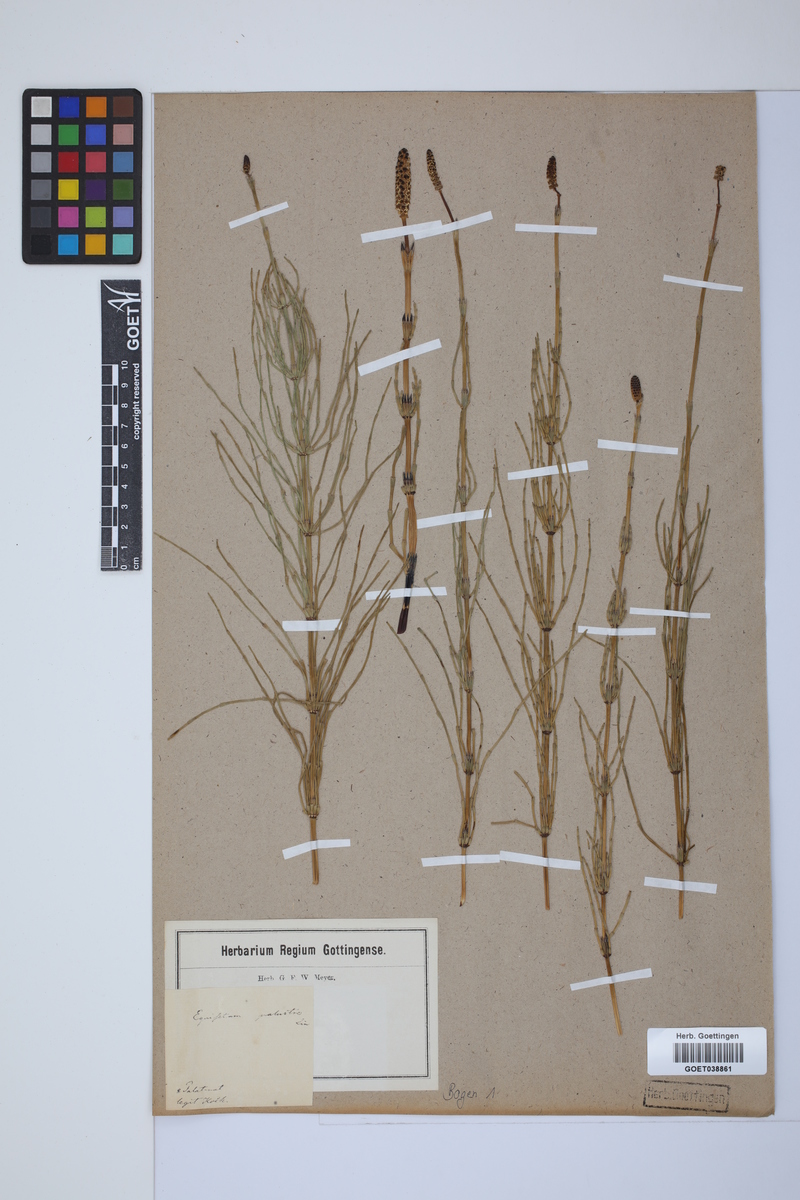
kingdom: Plantae
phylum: Tracheophyta
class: Polypodiopsida
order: Equisetales
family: Equisetaceae
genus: Equisetum
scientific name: Equisetum palustre
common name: Marsh horsetail
